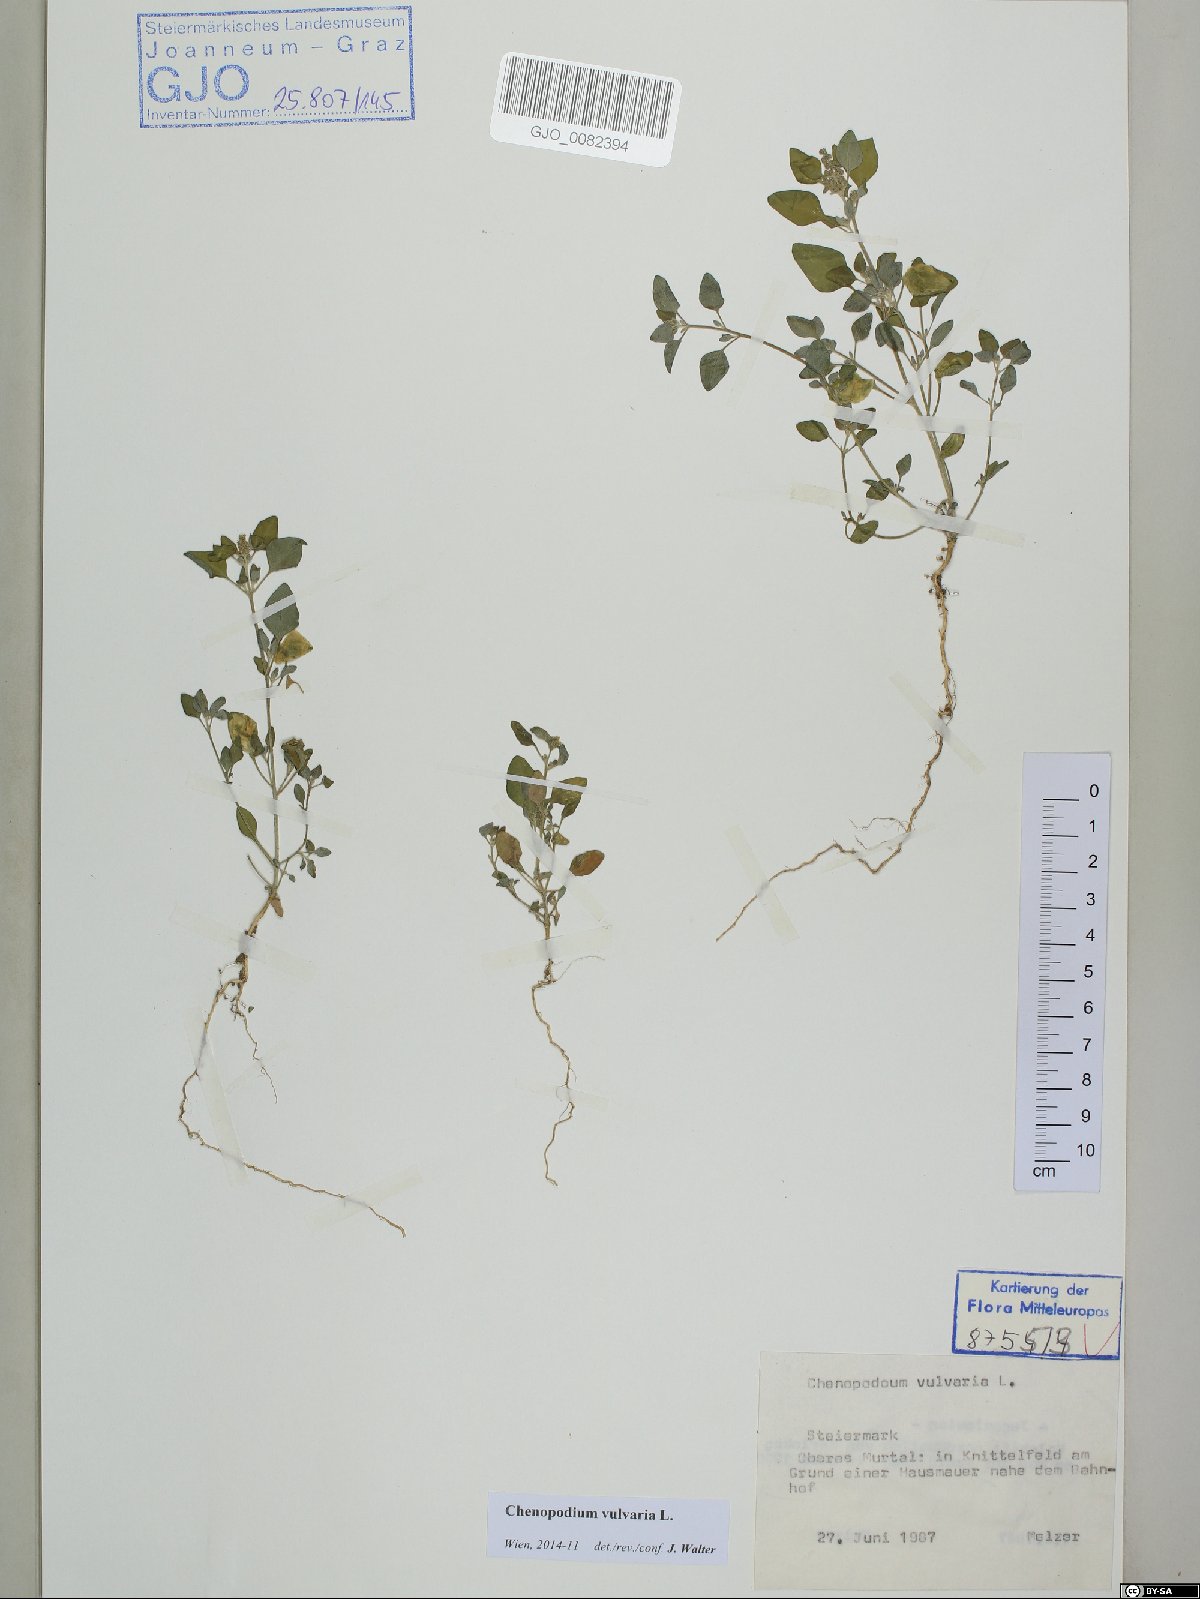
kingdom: Plantae
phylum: Tracheophyta
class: Magnoliopsida
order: Caryophyllales
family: Amaranthaceae
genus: Chenopodium
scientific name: Chenopodium vulvaria
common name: Stinking goosefoot
